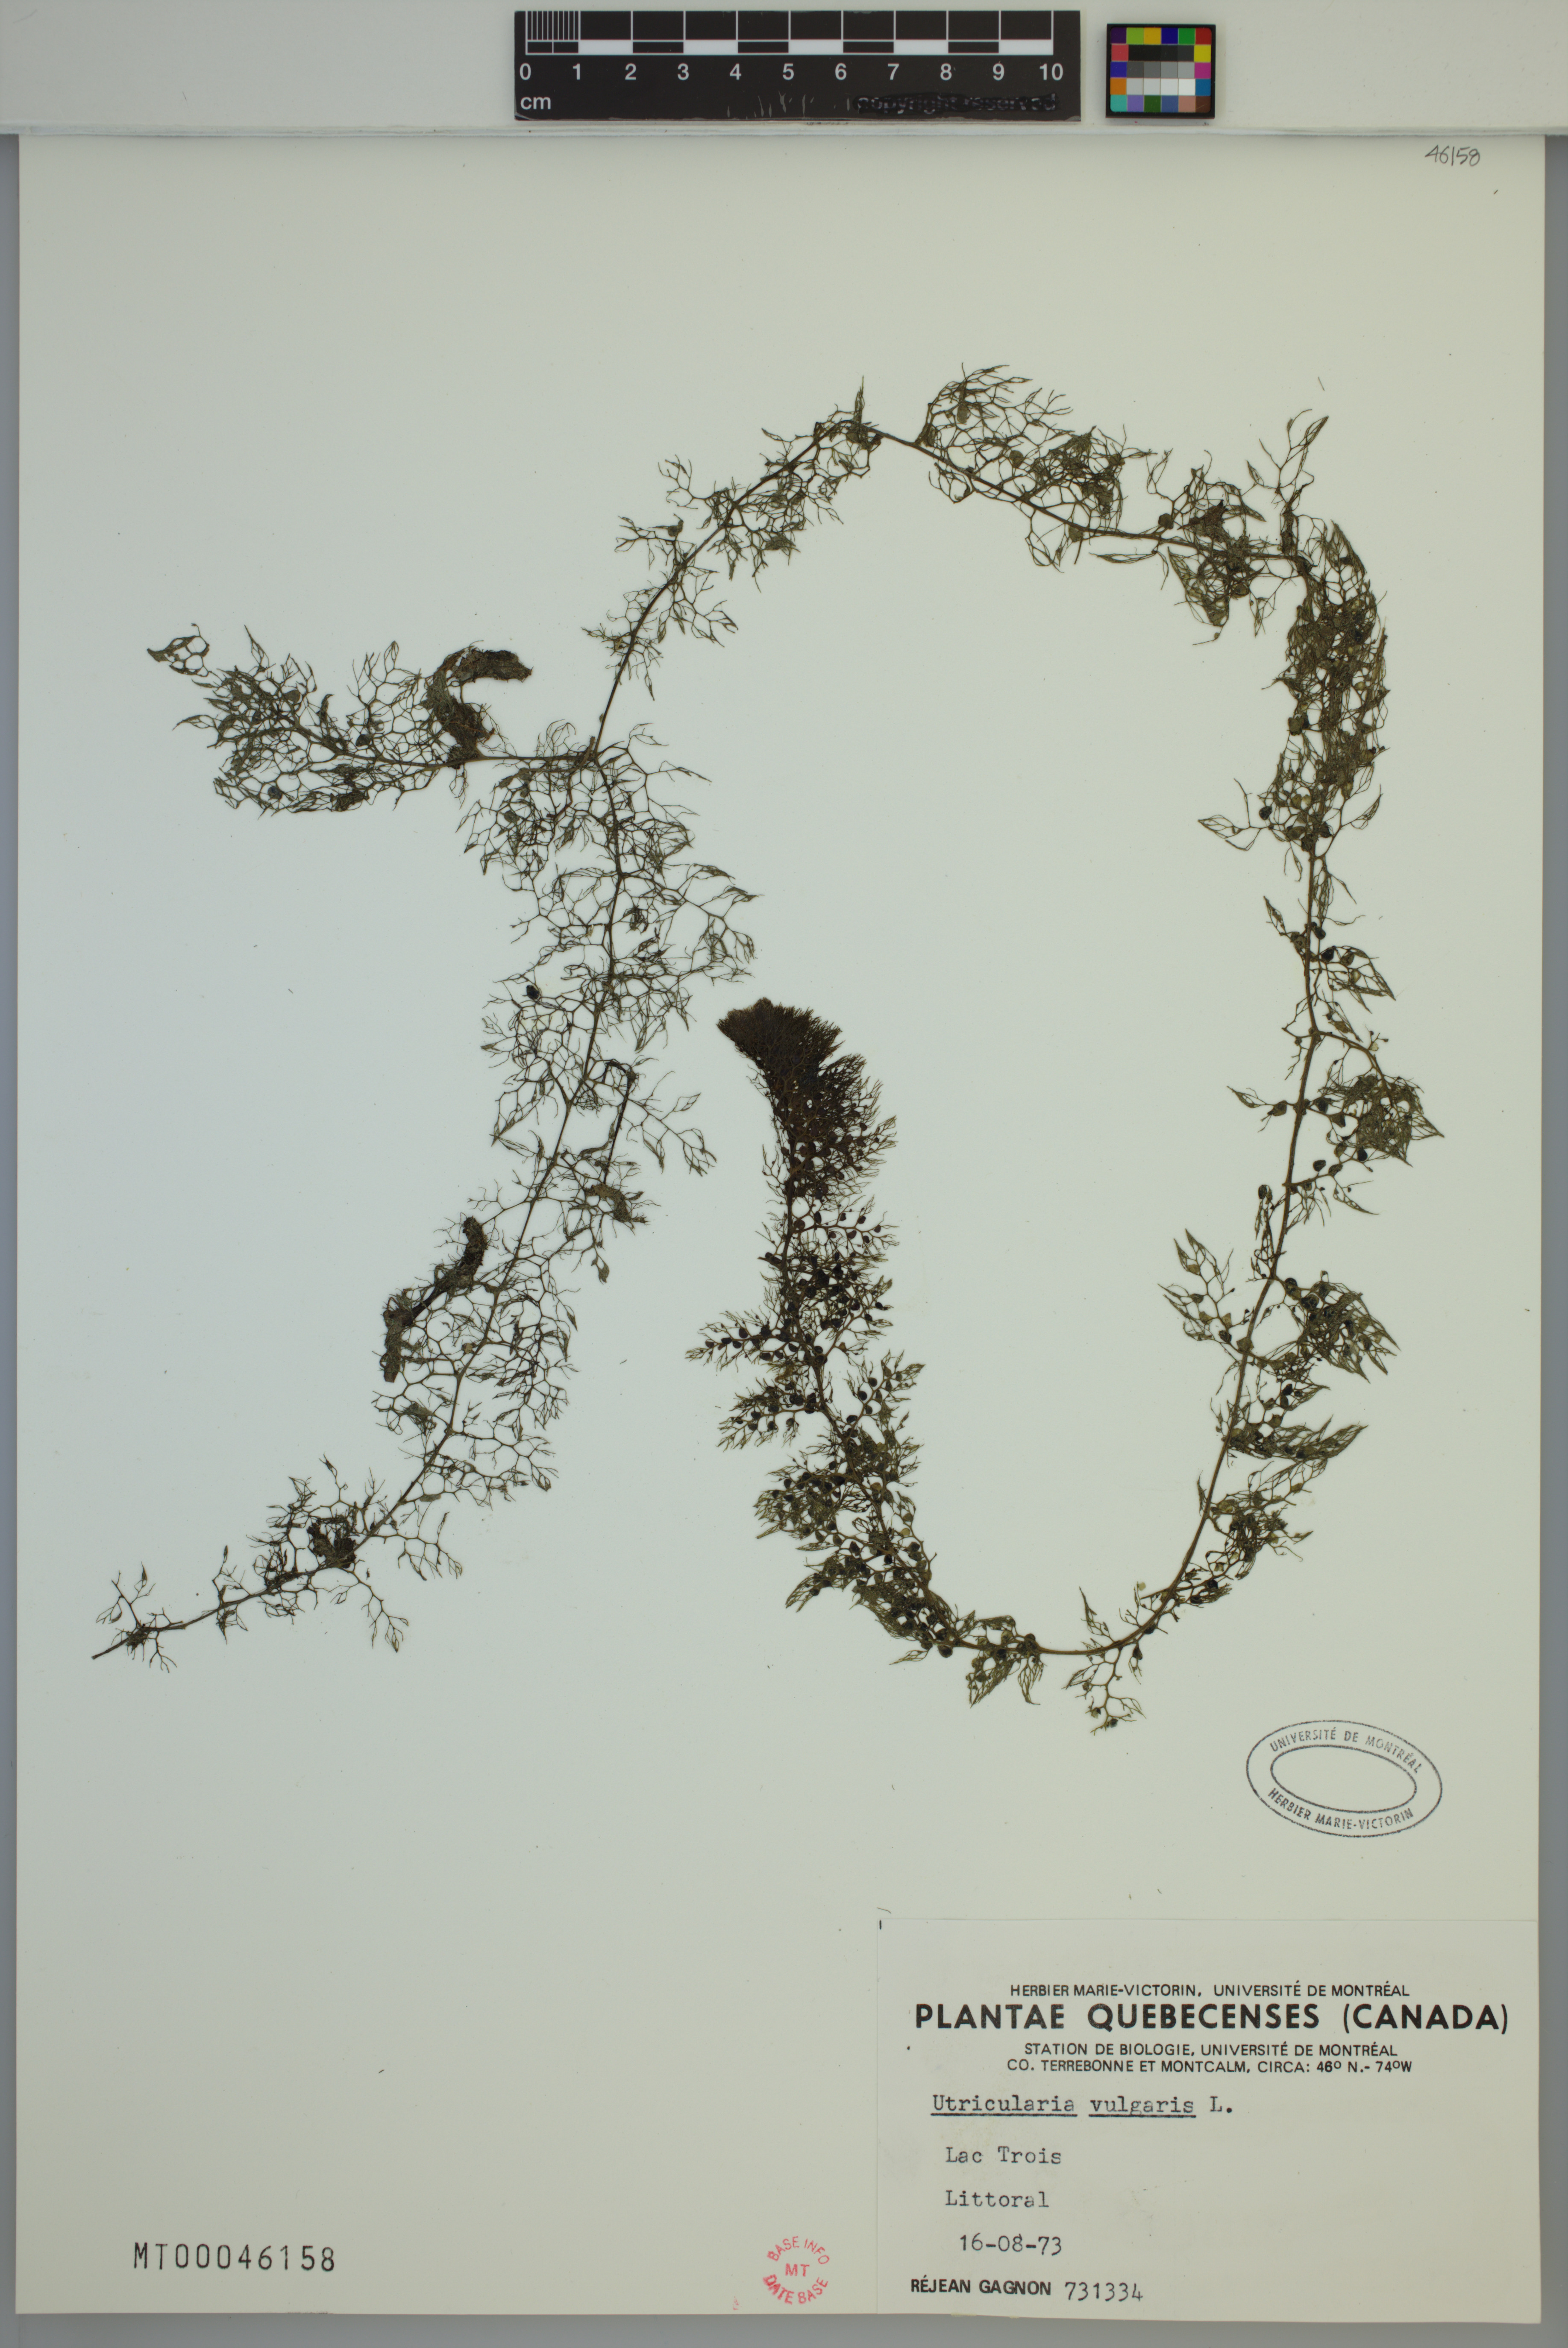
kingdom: Plantae
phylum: Tracheophyta
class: Magnoliopsida
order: Lamiales
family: Lentibulariaceae
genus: Utricularia
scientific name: Utricularia macrorhiza
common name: Common bladderwort
